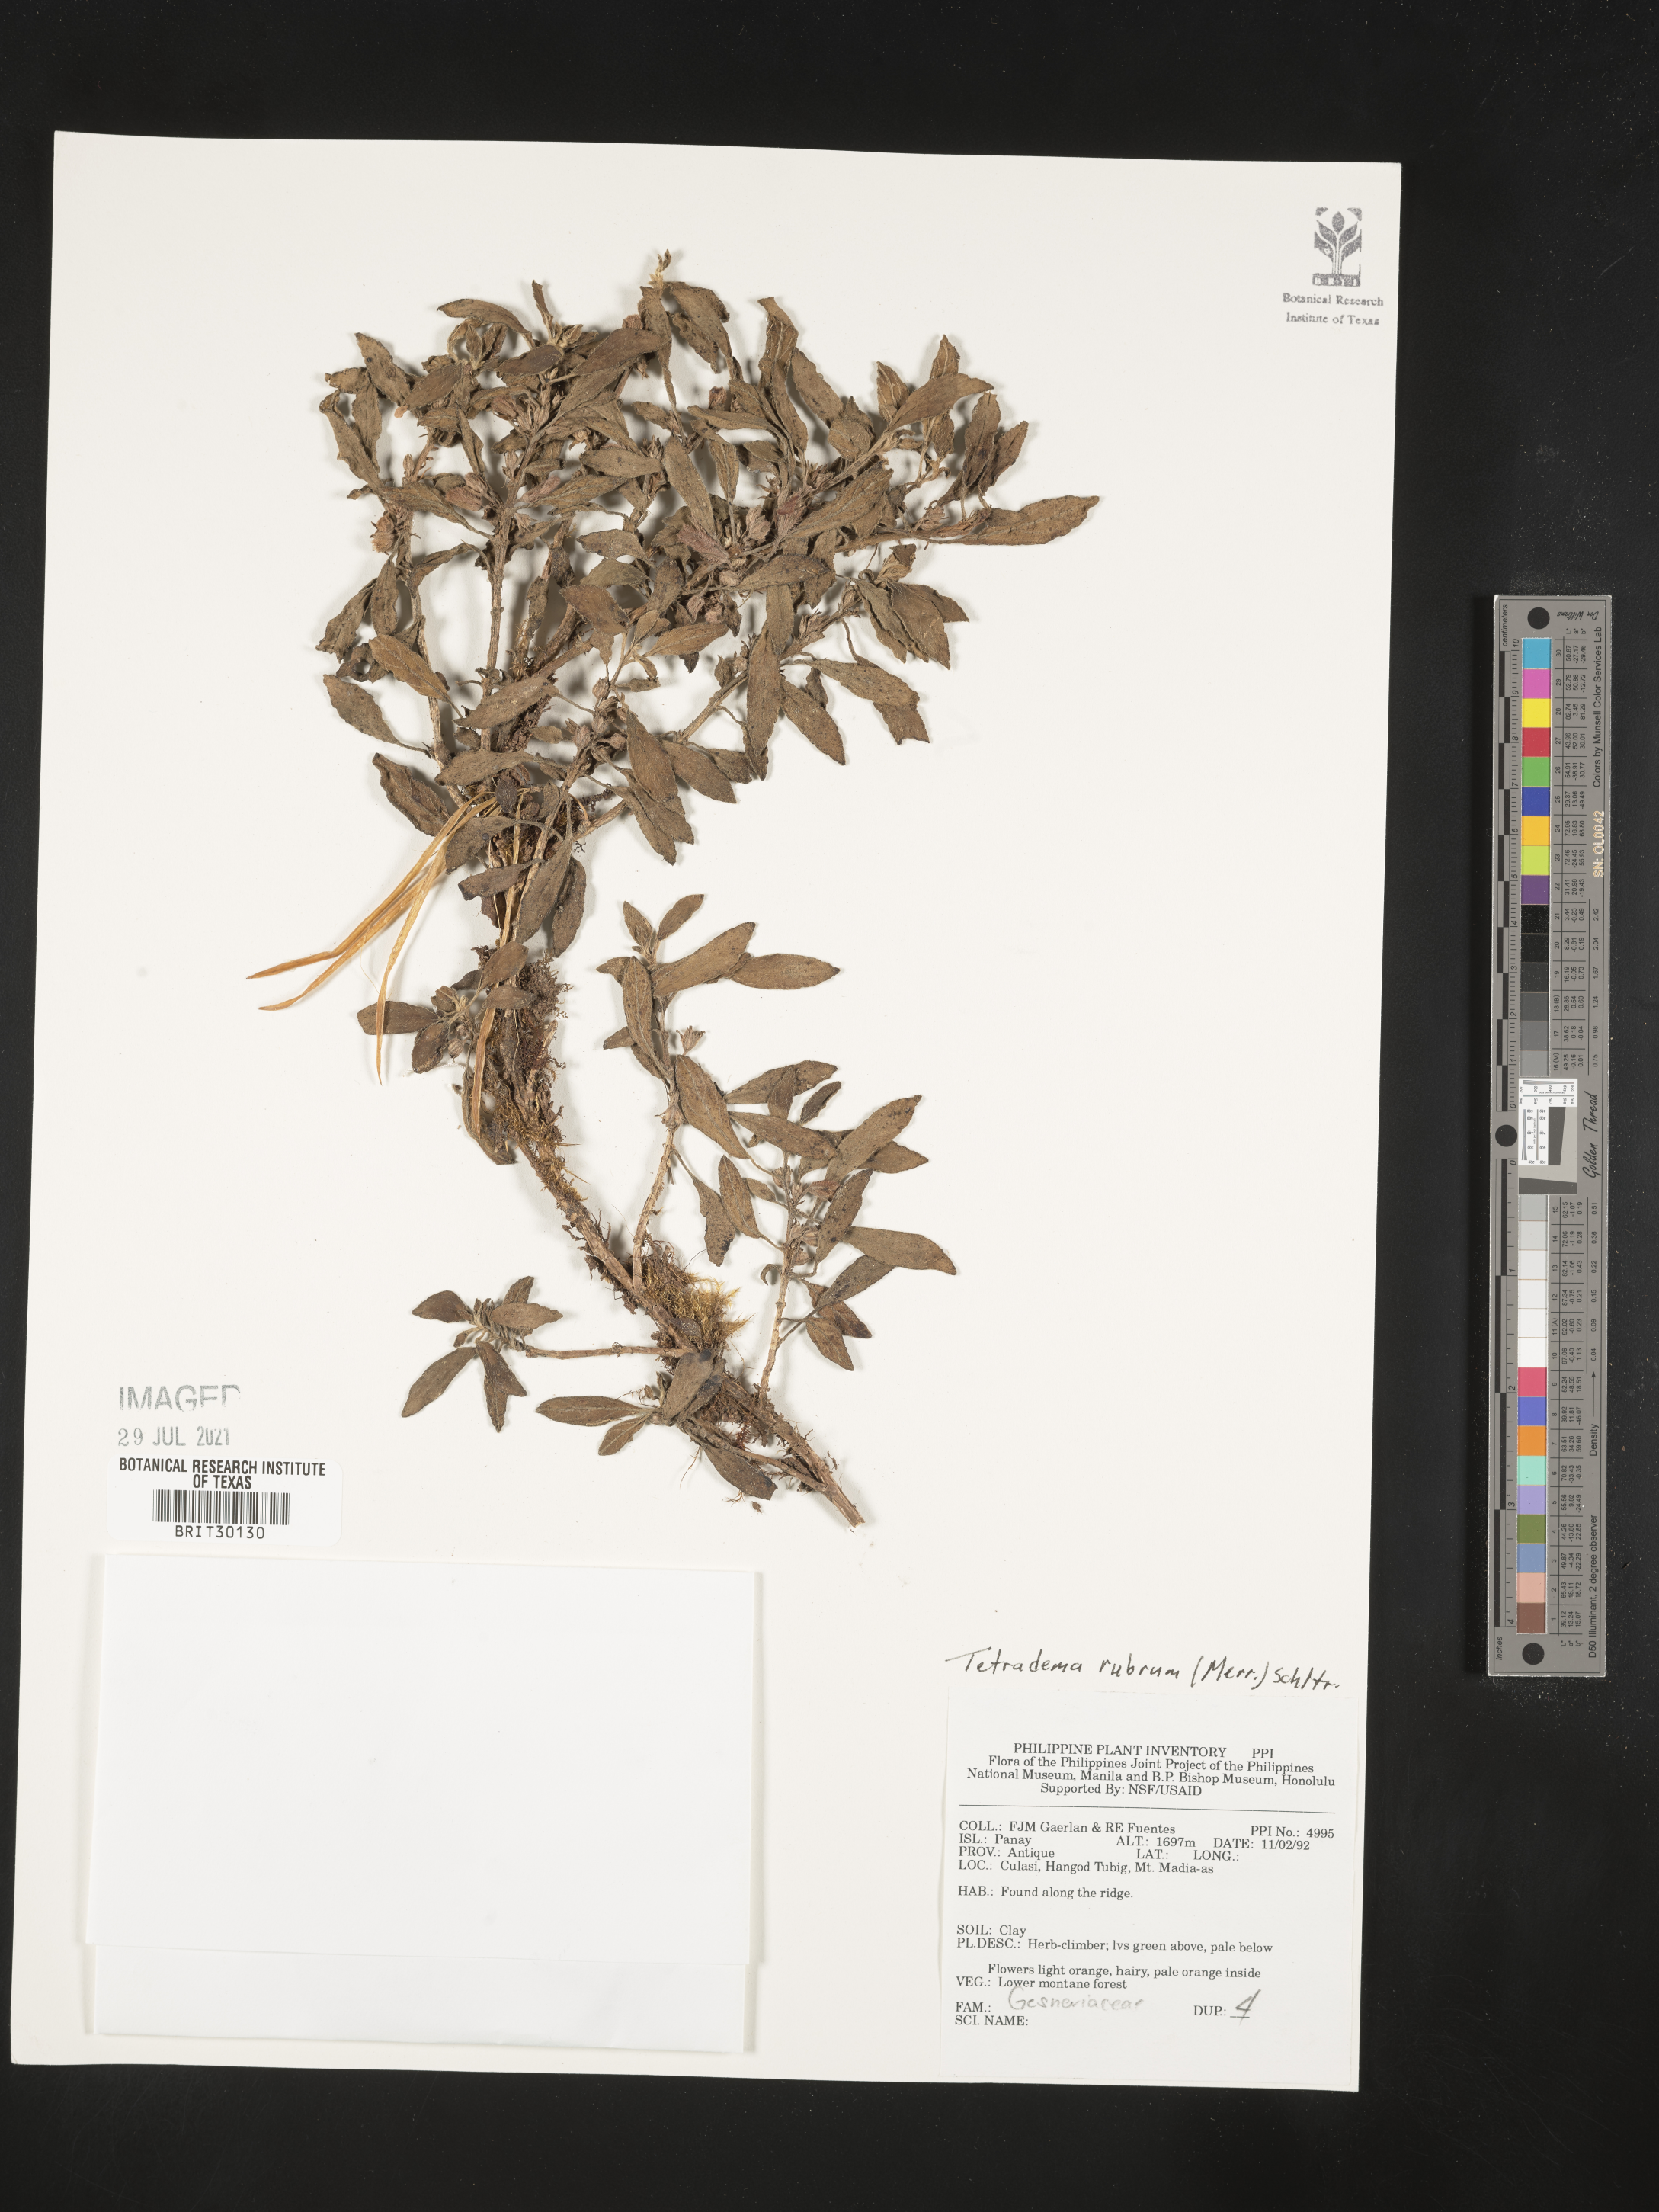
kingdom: Plantae
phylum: Tracheophyta
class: Magnoliopsida
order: Lamiales
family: Gesneriaceae
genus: Agalmyla
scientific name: Agalmyla rubra
